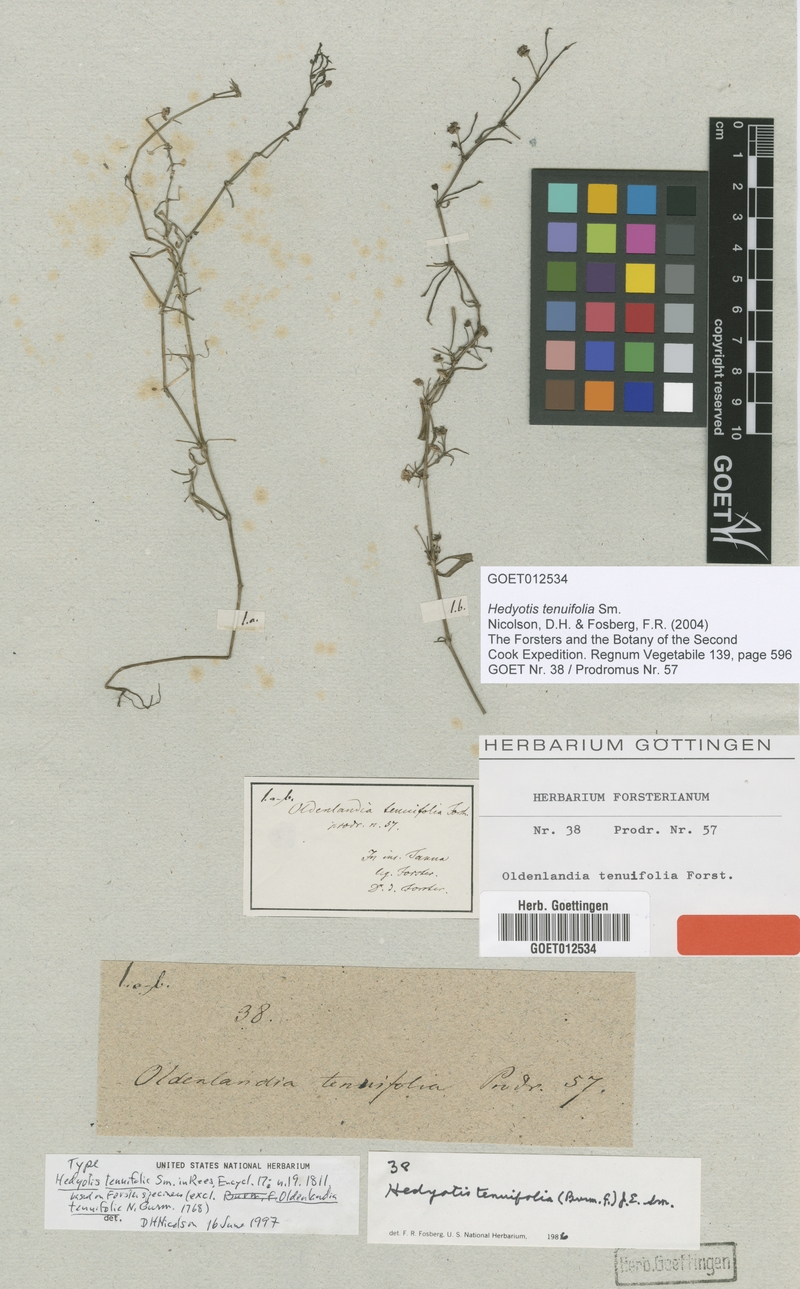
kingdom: Plantae
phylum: Tracheophyta
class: Magnoliopsida
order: Gentianales
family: Rubiaceae
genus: Scleromitrion
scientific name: Scleromitrion galioides
